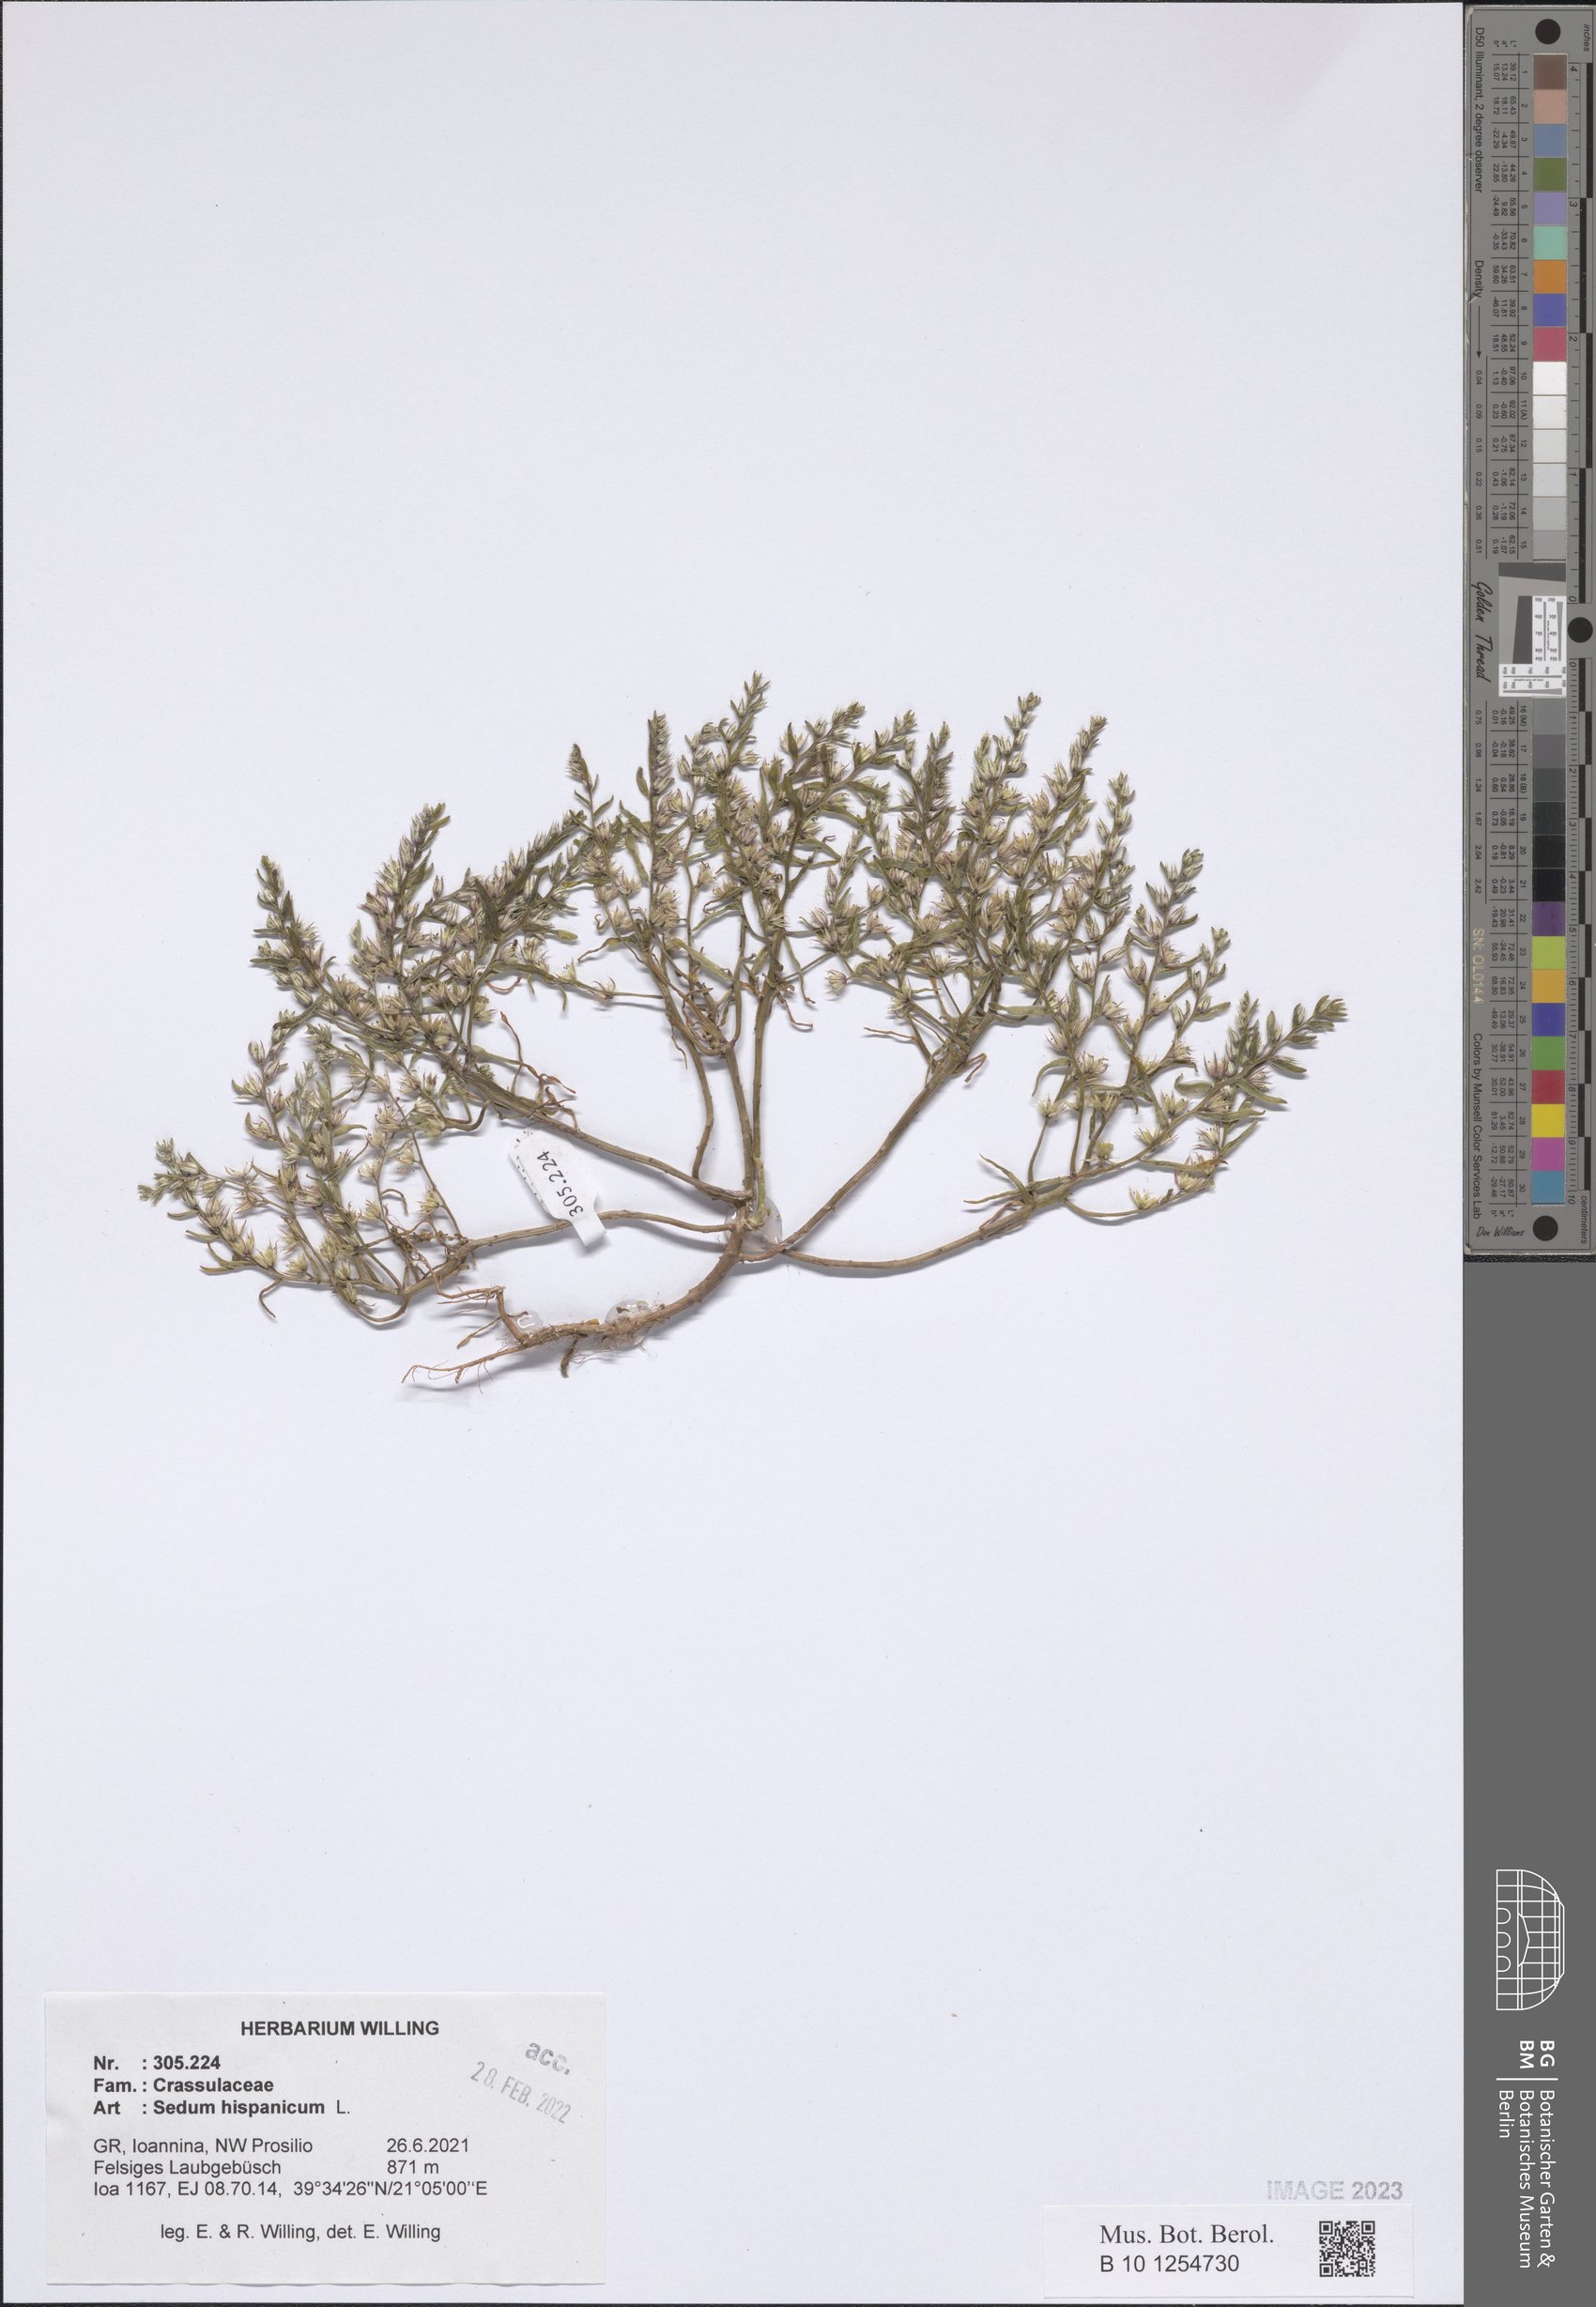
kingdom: Plantae
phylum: Tracheophyta
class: Magnoliopsida
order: Saxifragales
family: Crassulaceae
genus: Sedum
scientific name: Sedum hispanicum
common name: Spanish stonecrop
